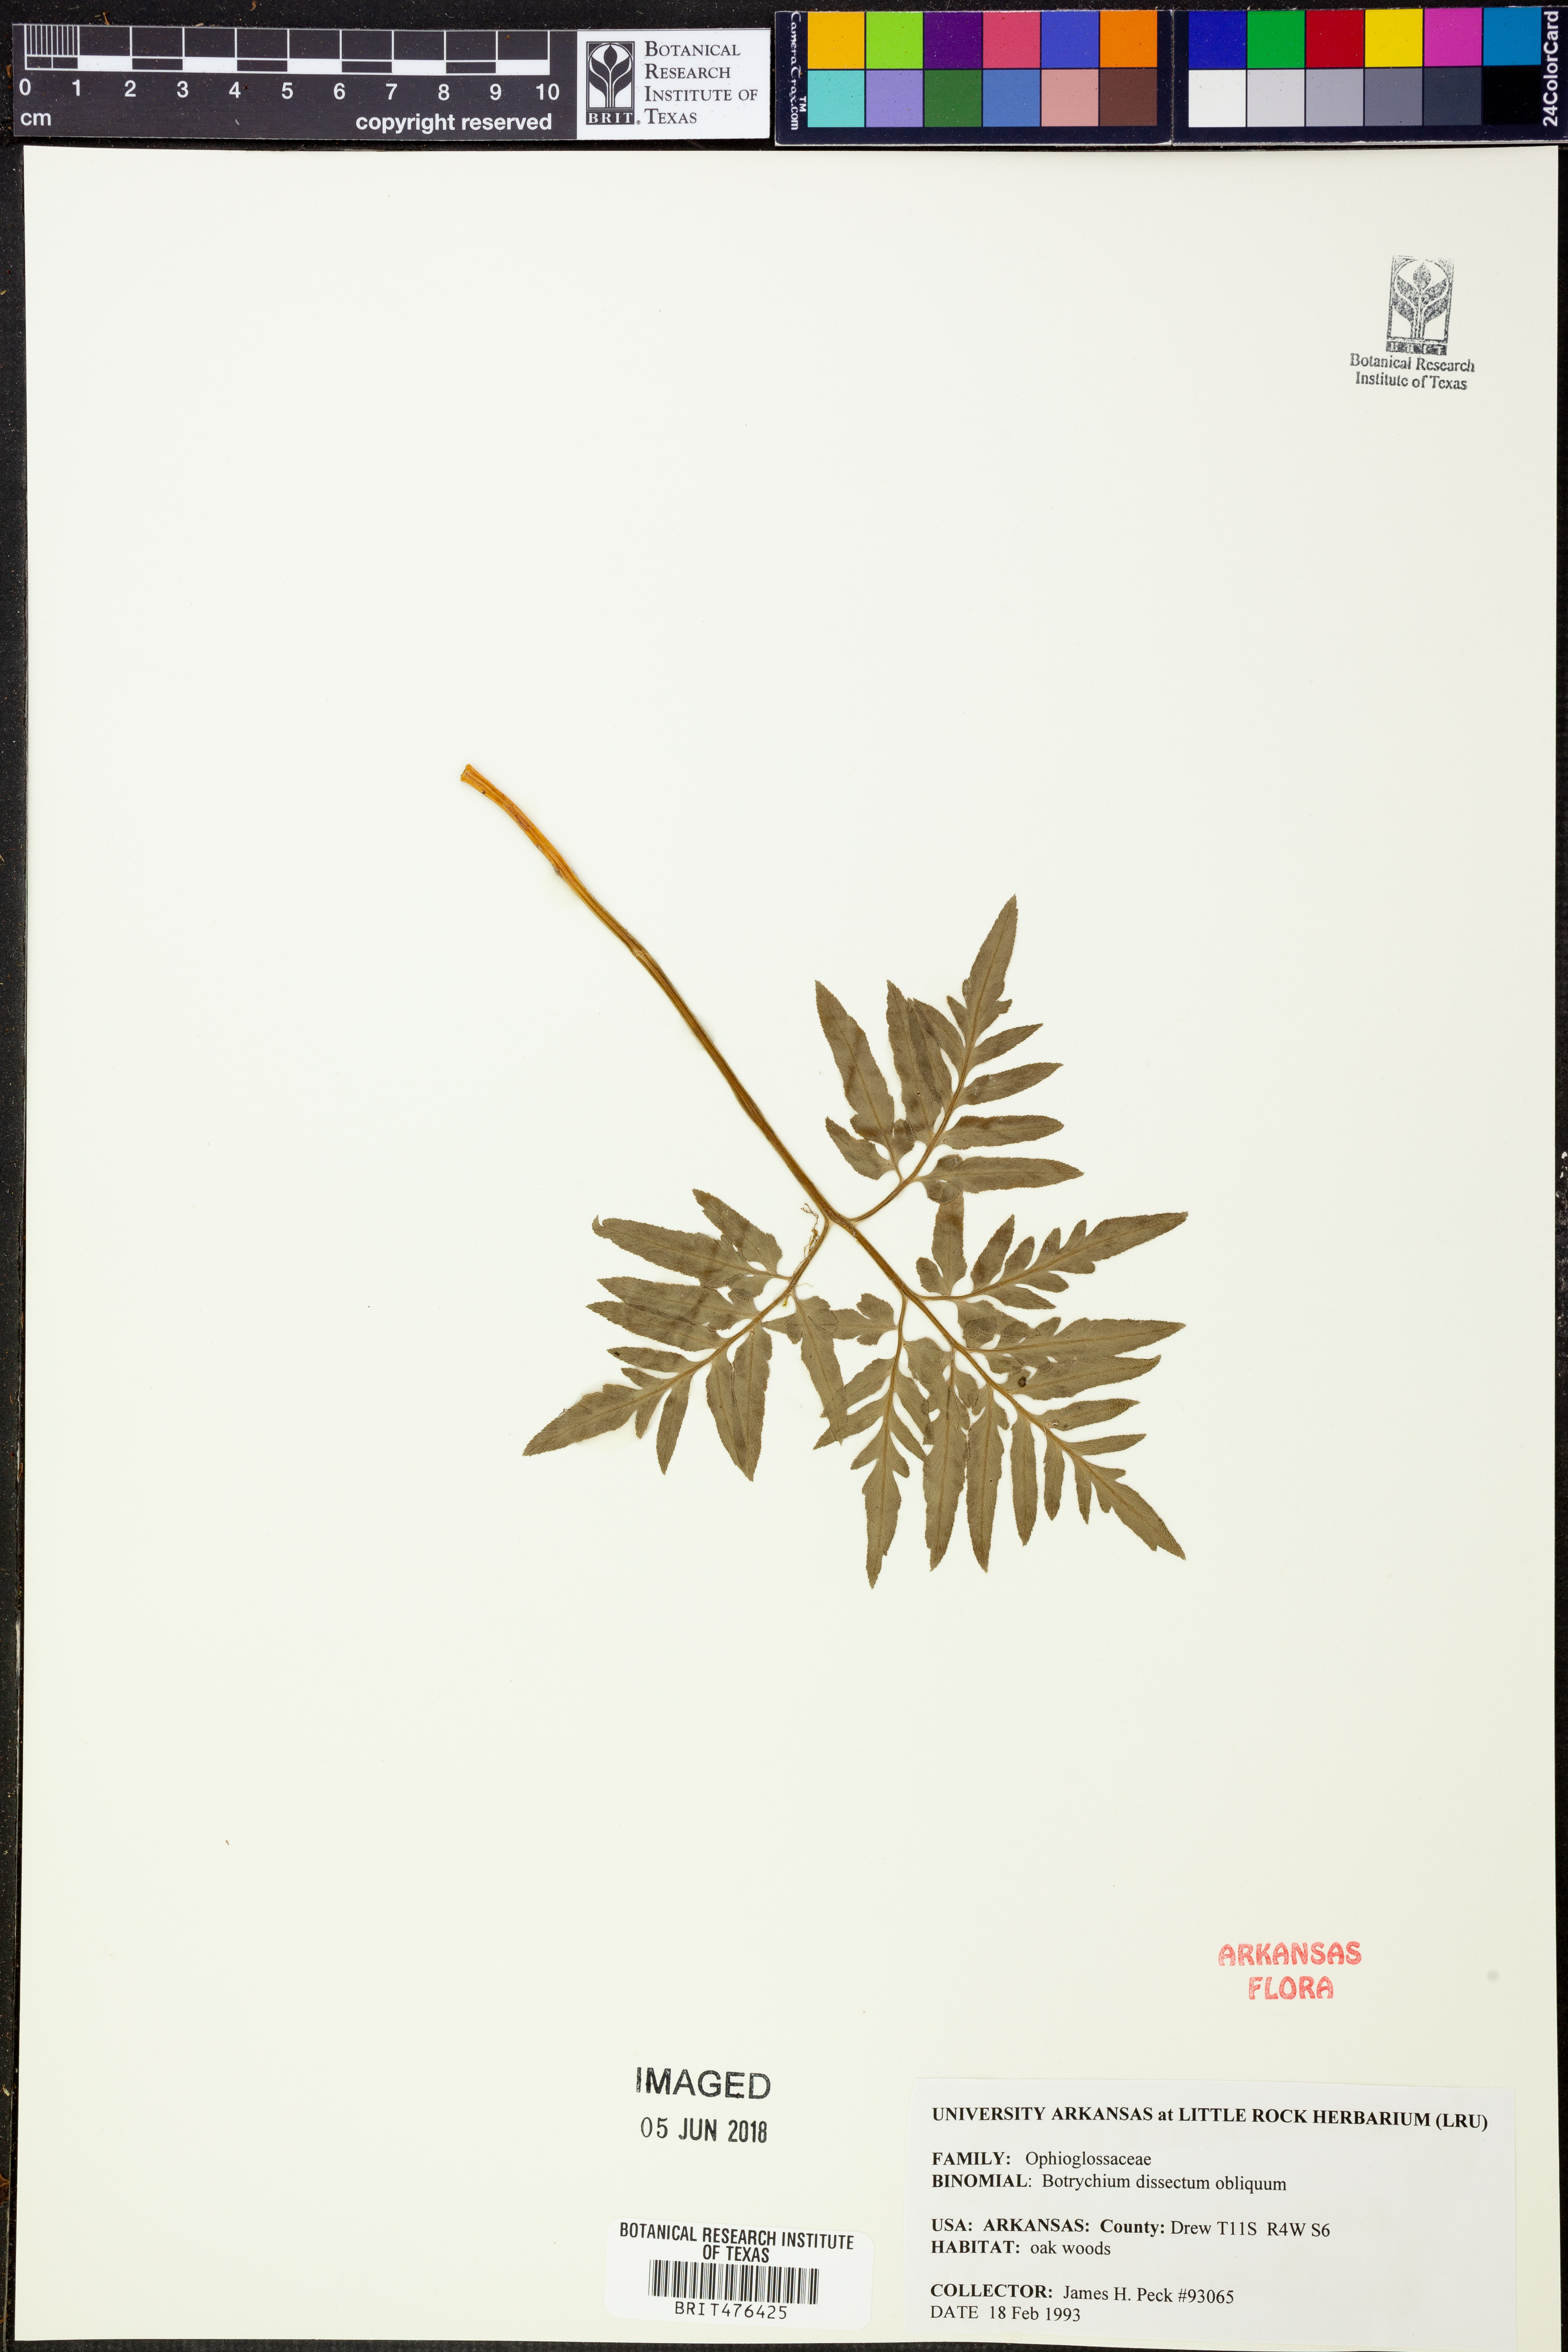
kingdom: Plantae
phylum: Tracheophyta
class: Polypodiopsida
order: Ophioglossales
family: Ophioglossaceae
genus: Sceptridium
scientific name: Sceptridium dissectum
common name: Cut-leaved grapefern
